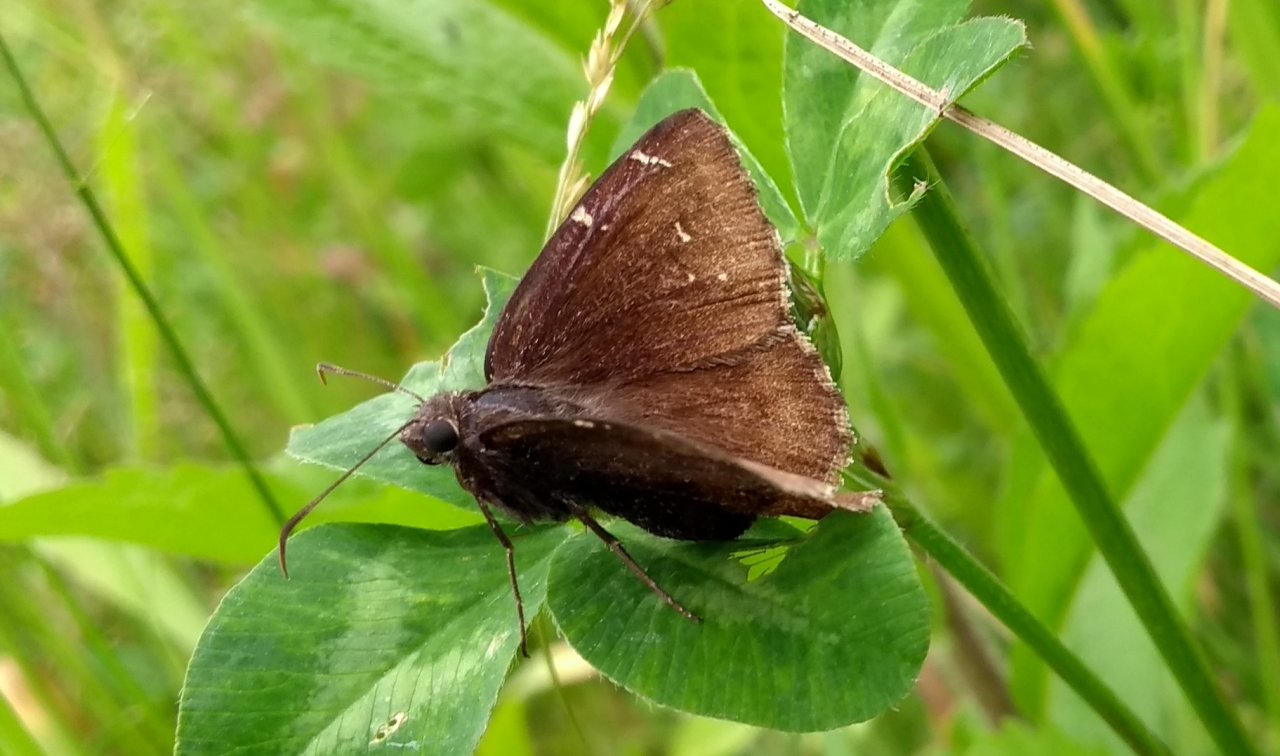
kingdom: Animalia
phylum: Arthropoda
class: Insecta
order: Lepidoptera
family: Hesperiidae
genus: Autochton
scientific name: Autochton
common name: Northern Cloudywing
